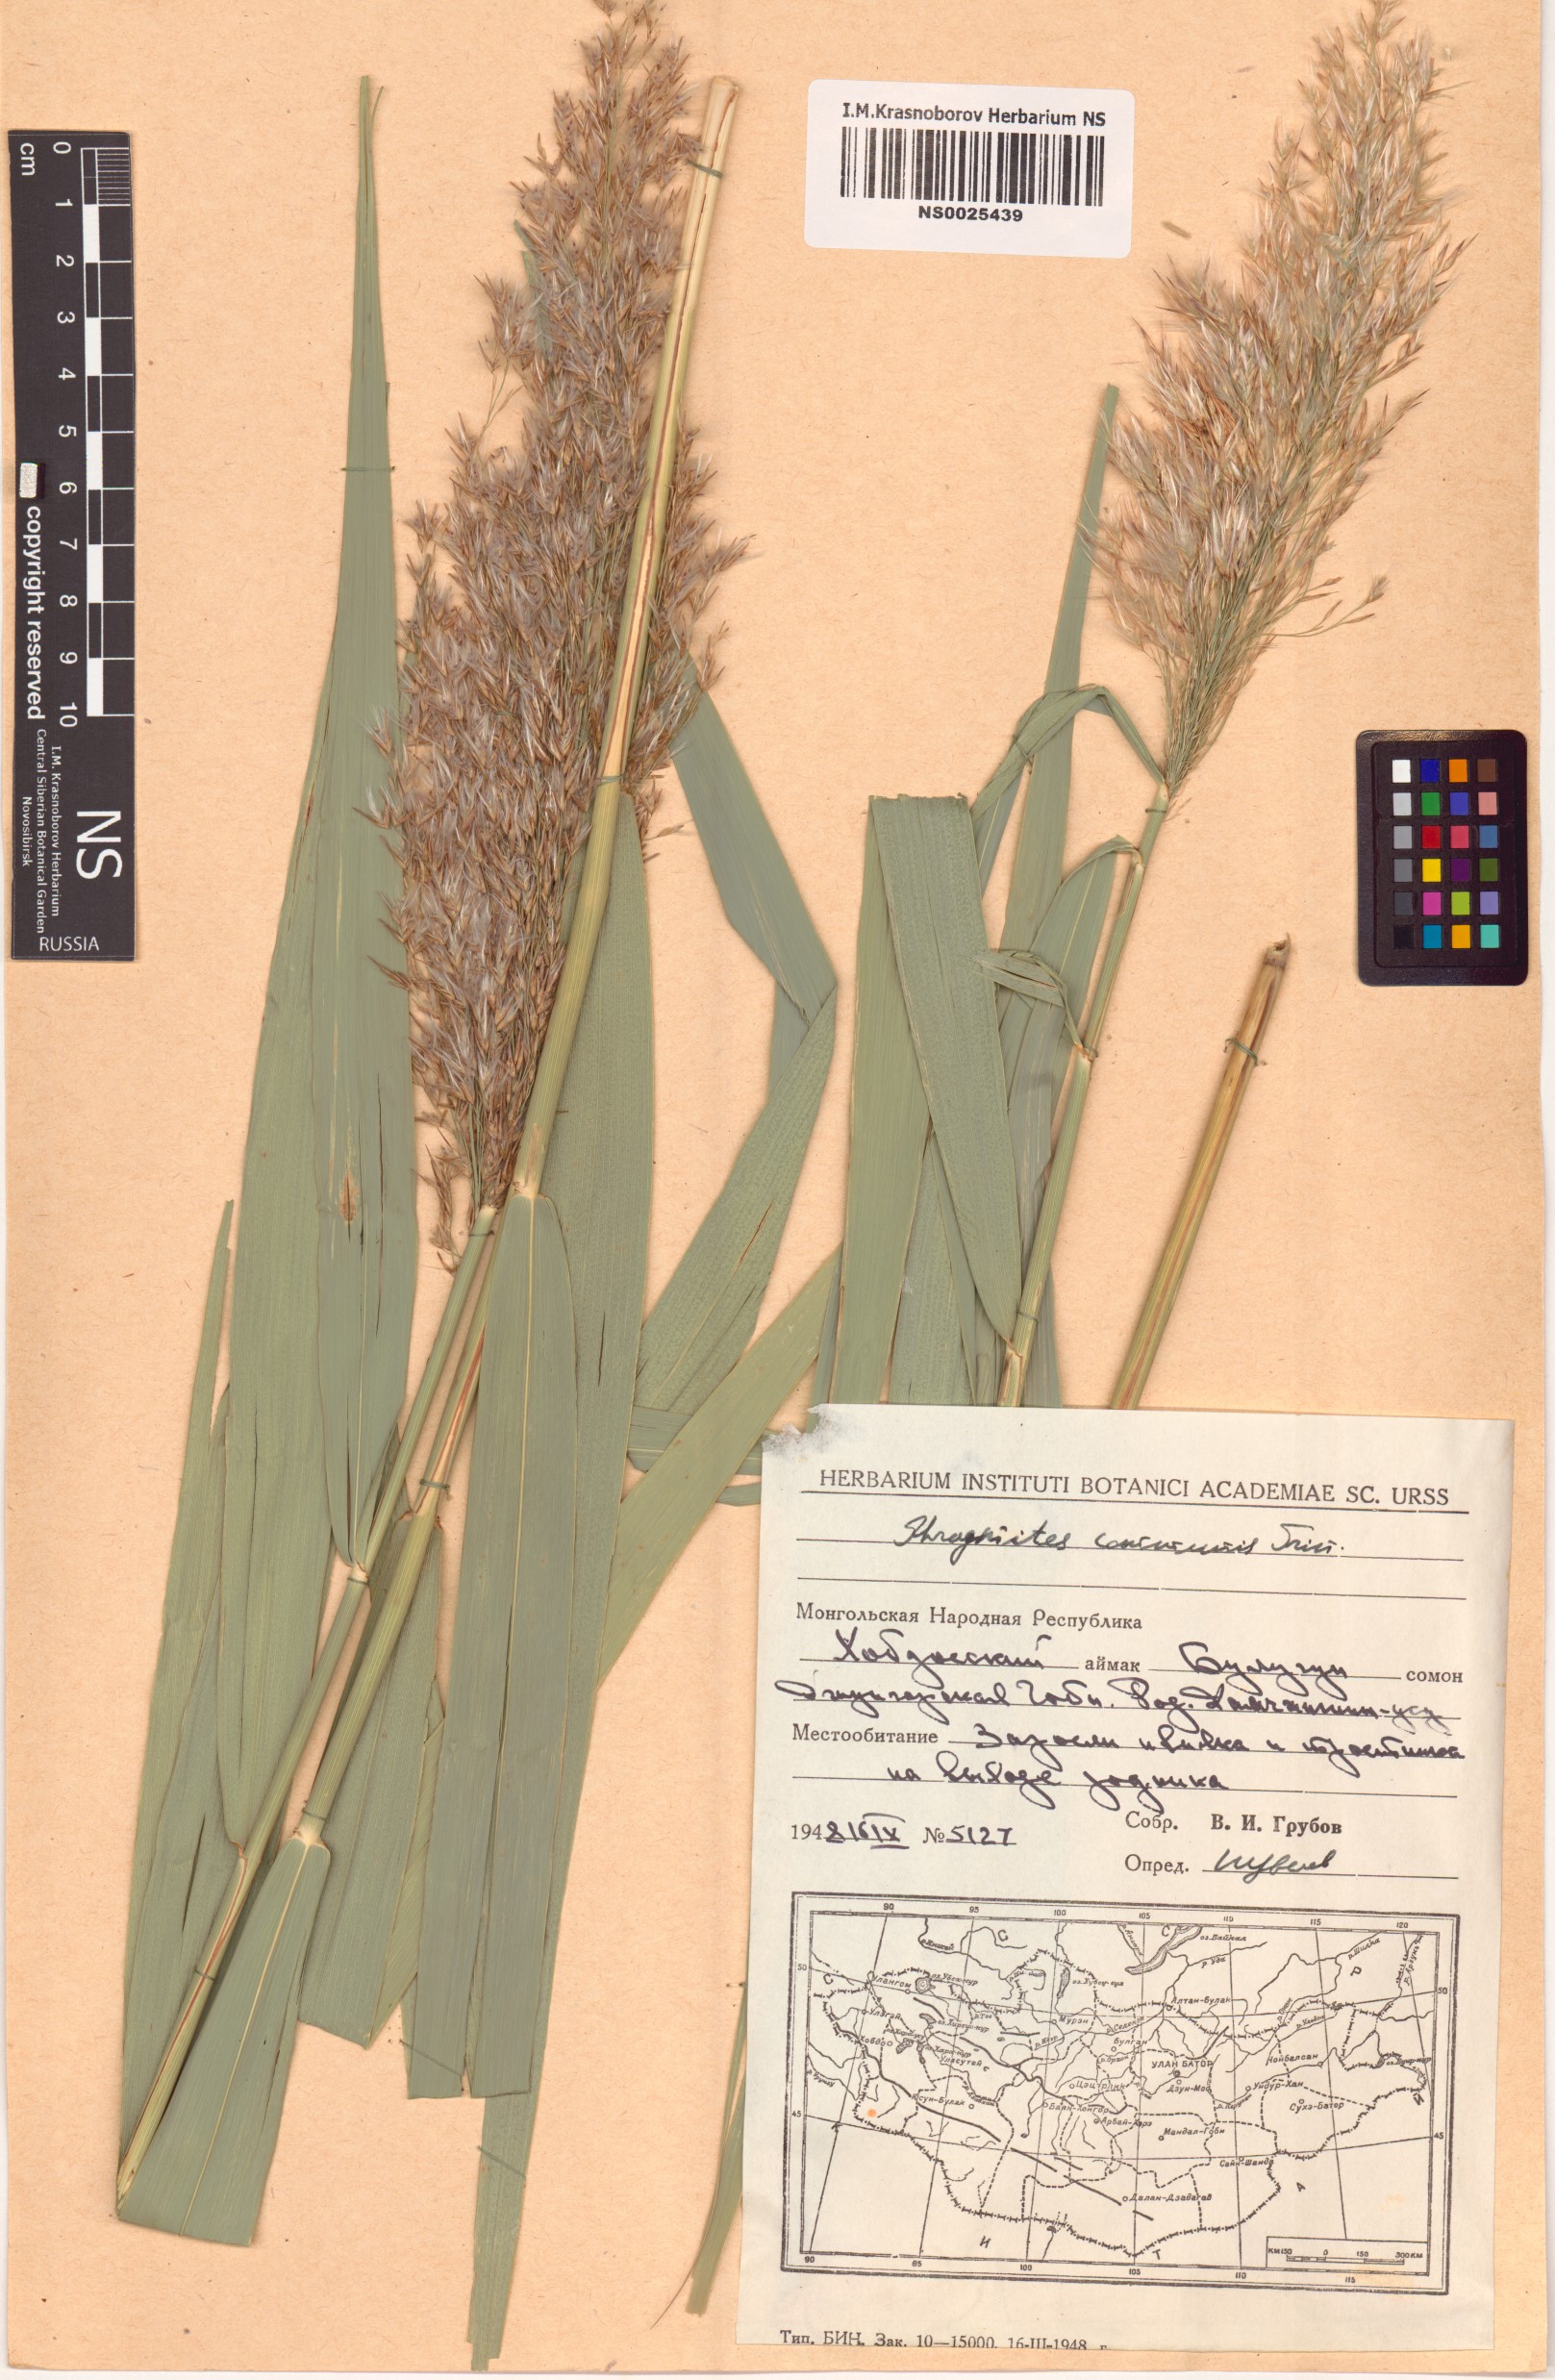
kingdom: Plantae
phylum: Tracheophyta
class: Liliopsida
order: Poales
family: Poaceae
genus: Phragmites
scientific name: Phragmites australis
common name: Common reed
